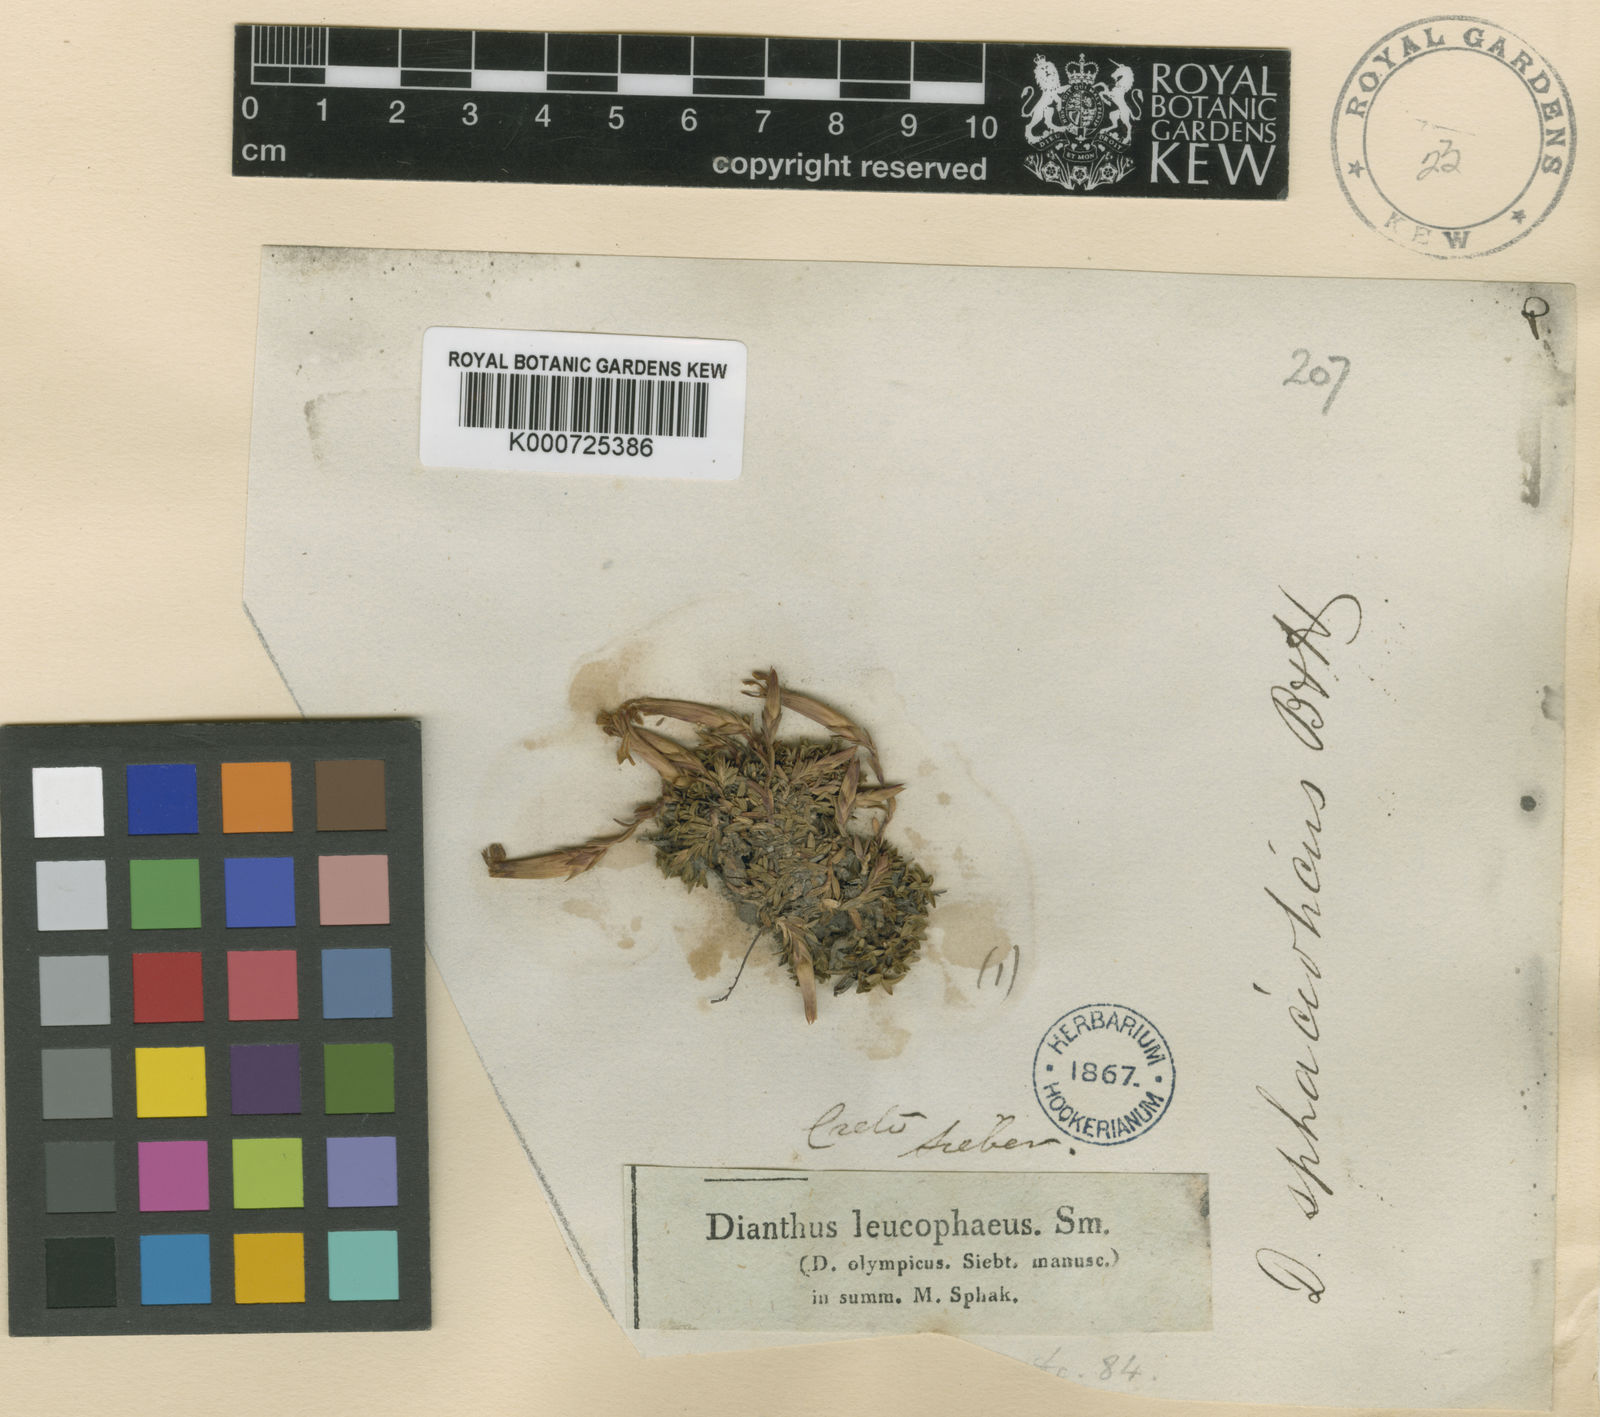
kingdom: Plantae
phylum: Tracheophyta
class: Magnoliopsida
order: Caryophyllales
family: Caryophyllaceae
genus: Dianthus
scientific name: Dianthus sphacioticus
